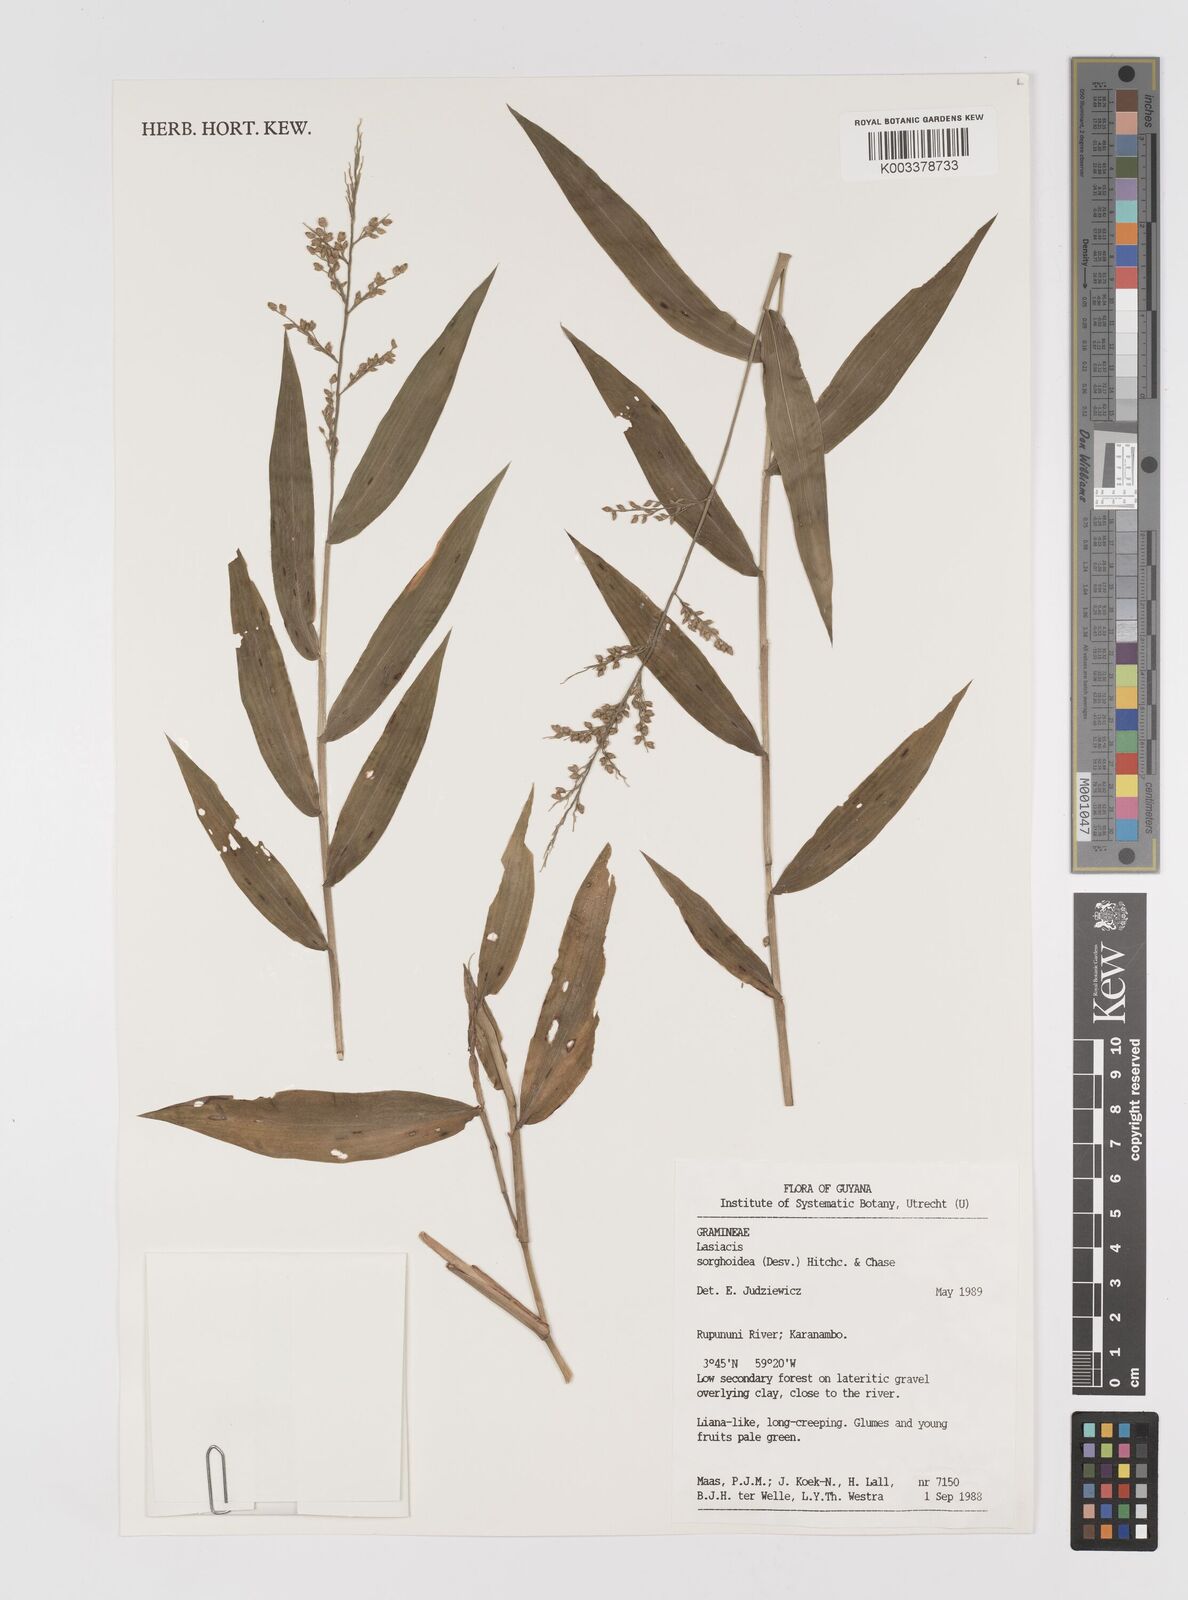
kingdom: Plantae
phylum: Tracheophyta
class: Liliopsida
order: Poales
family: Poaceae
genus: Lasiacis
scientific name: Lasiacis maculata
